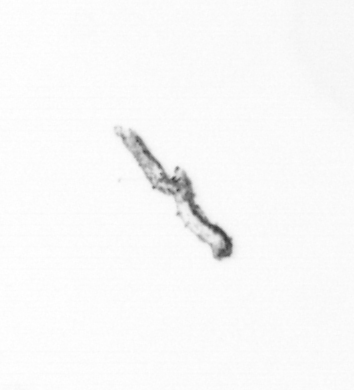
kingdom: Chromista
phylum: Ochrophyta
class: Bacillariophyceae
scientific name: Bacillariophyceae
